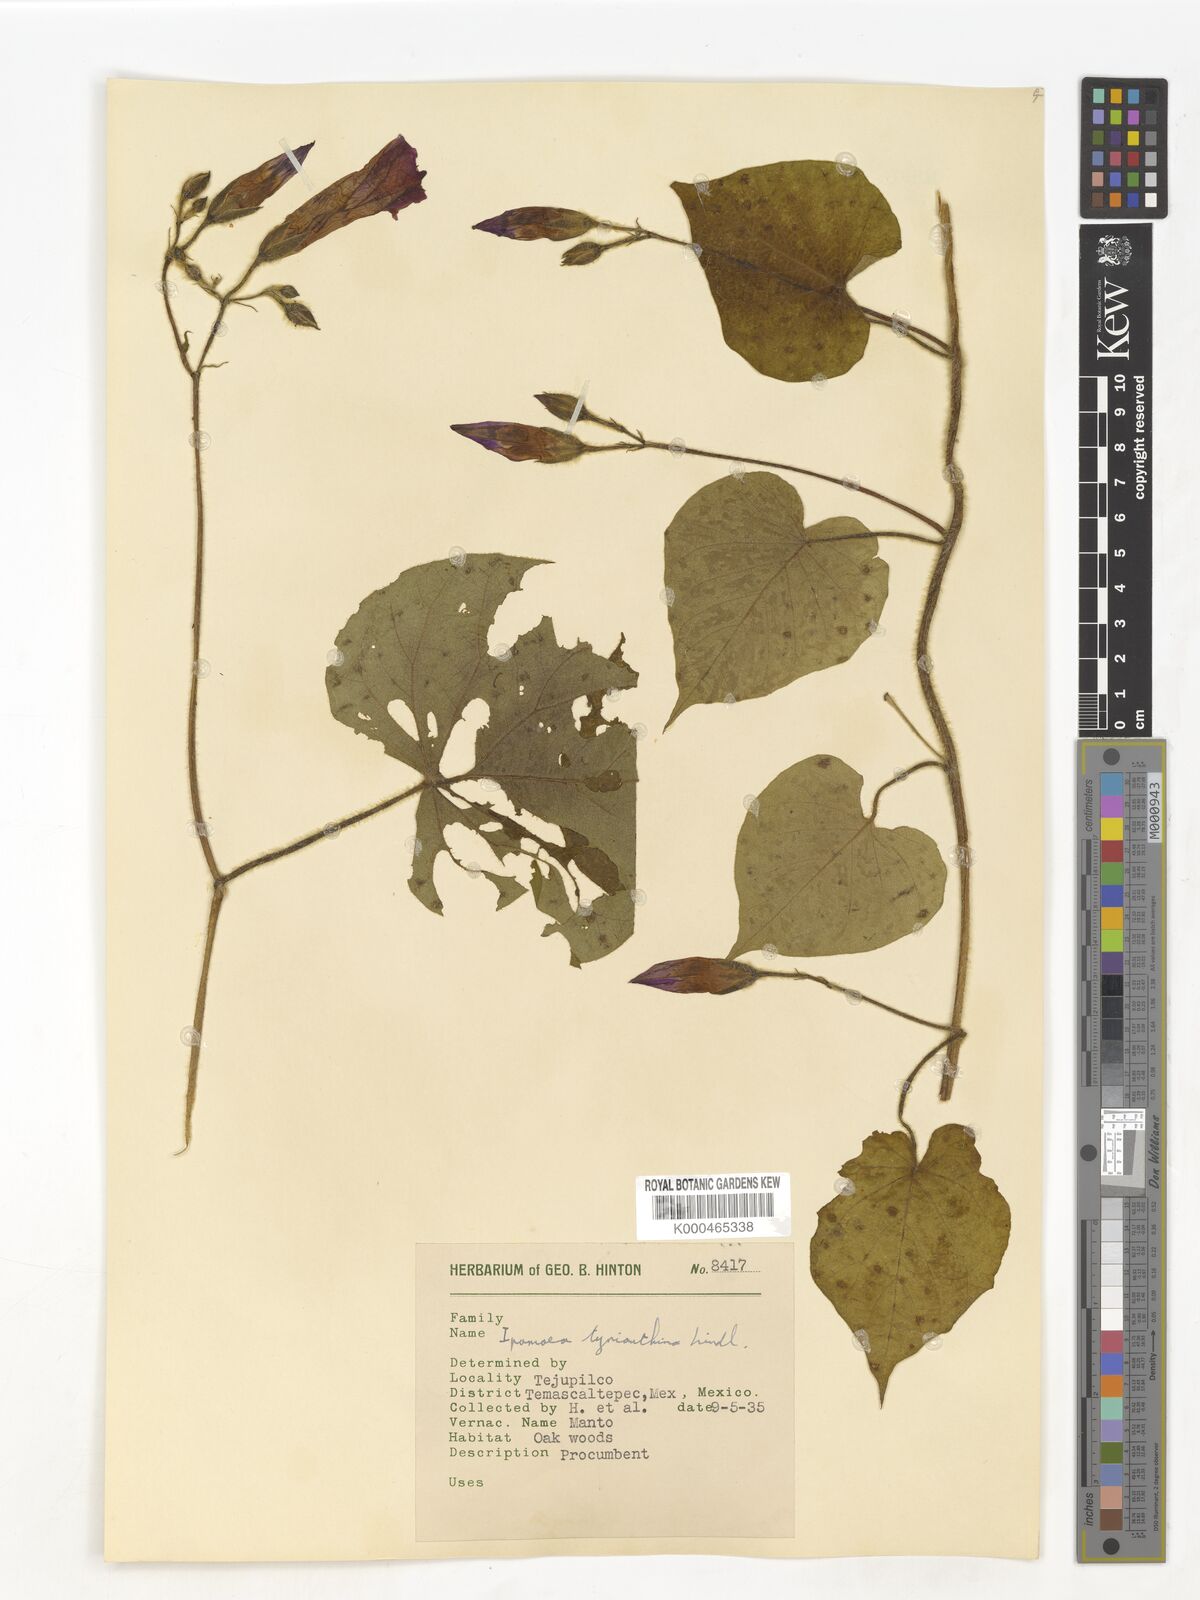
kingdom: Plantae
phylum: Tracheophyta
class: Magnoliopsida
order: Solanales
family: Convolvulaceae
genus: Ipomoea
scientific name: Ipomoea orizabensis
